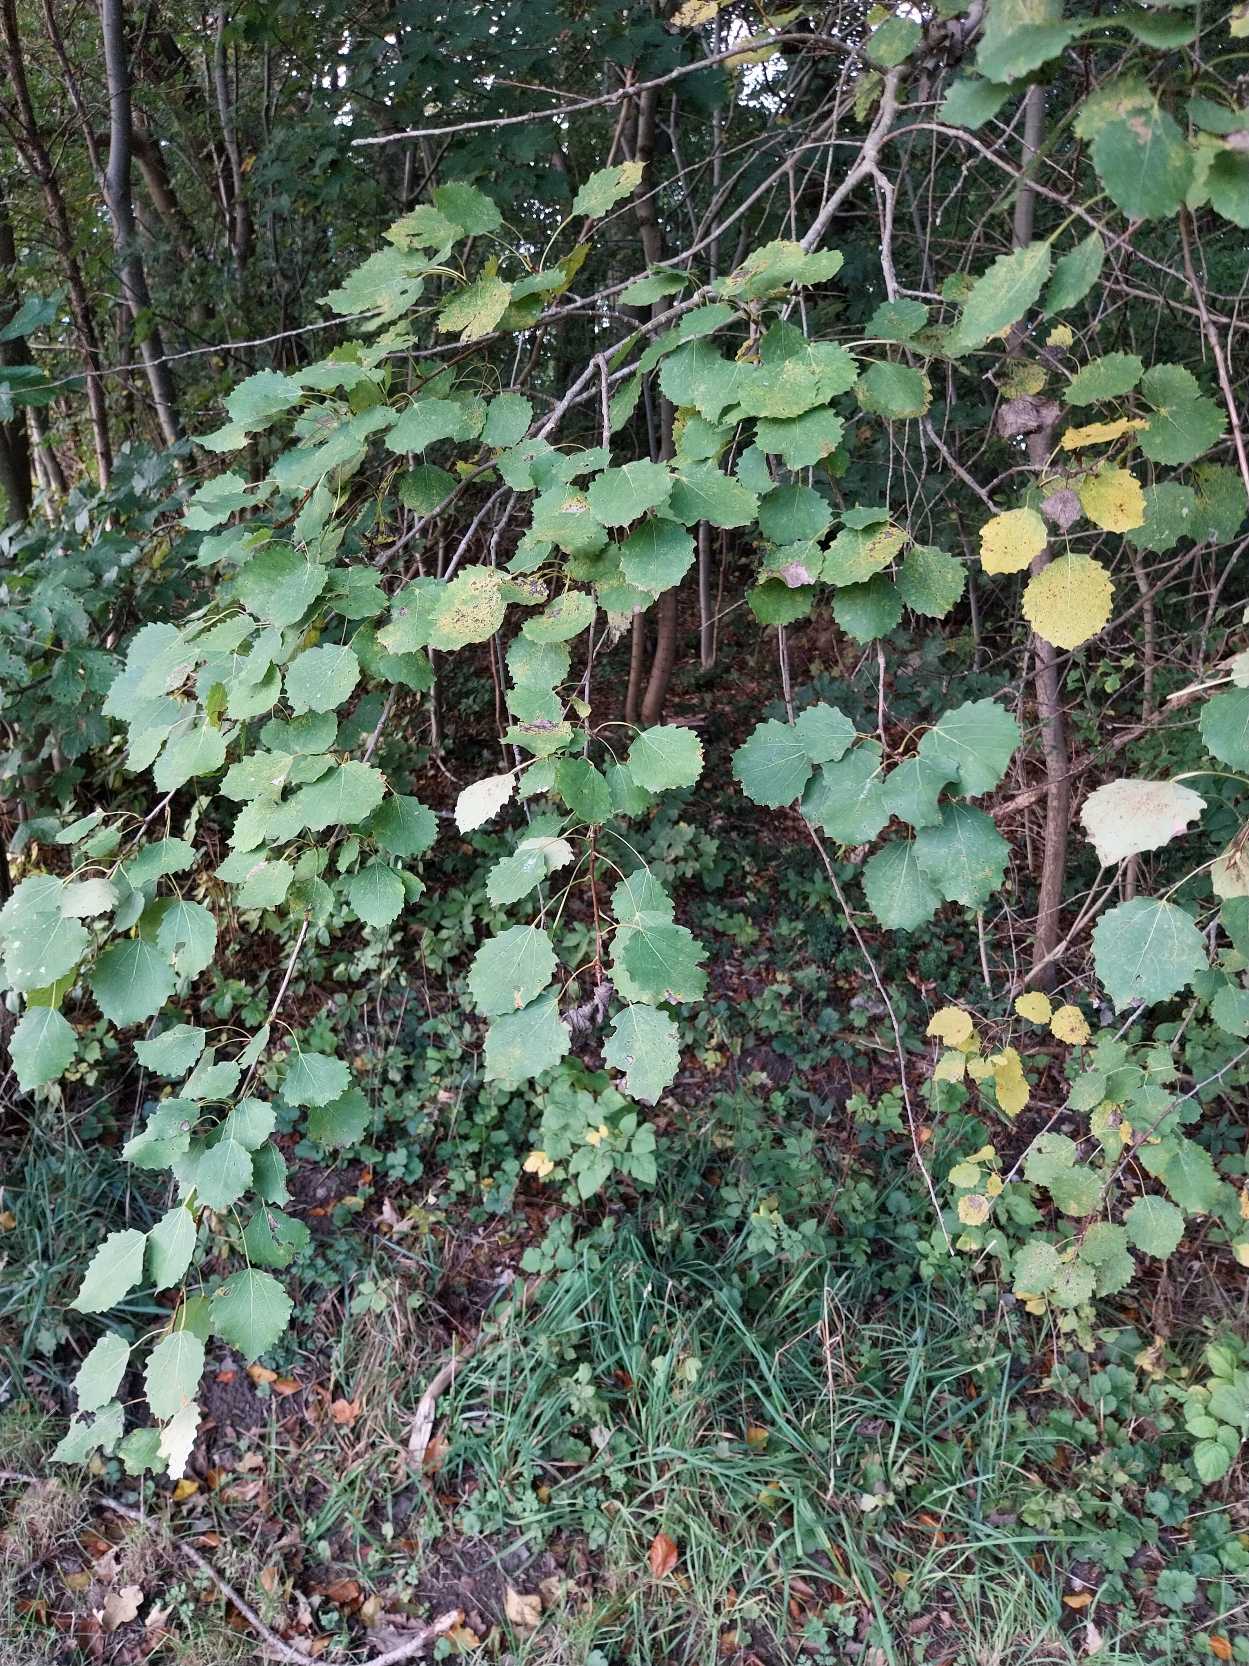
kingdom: Plantae
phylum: Tracheophyta
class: Magnoliopsida
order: Malpighiales
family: Salicaceae
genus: Populus
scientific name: Populus tremula
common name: Bævreasp
